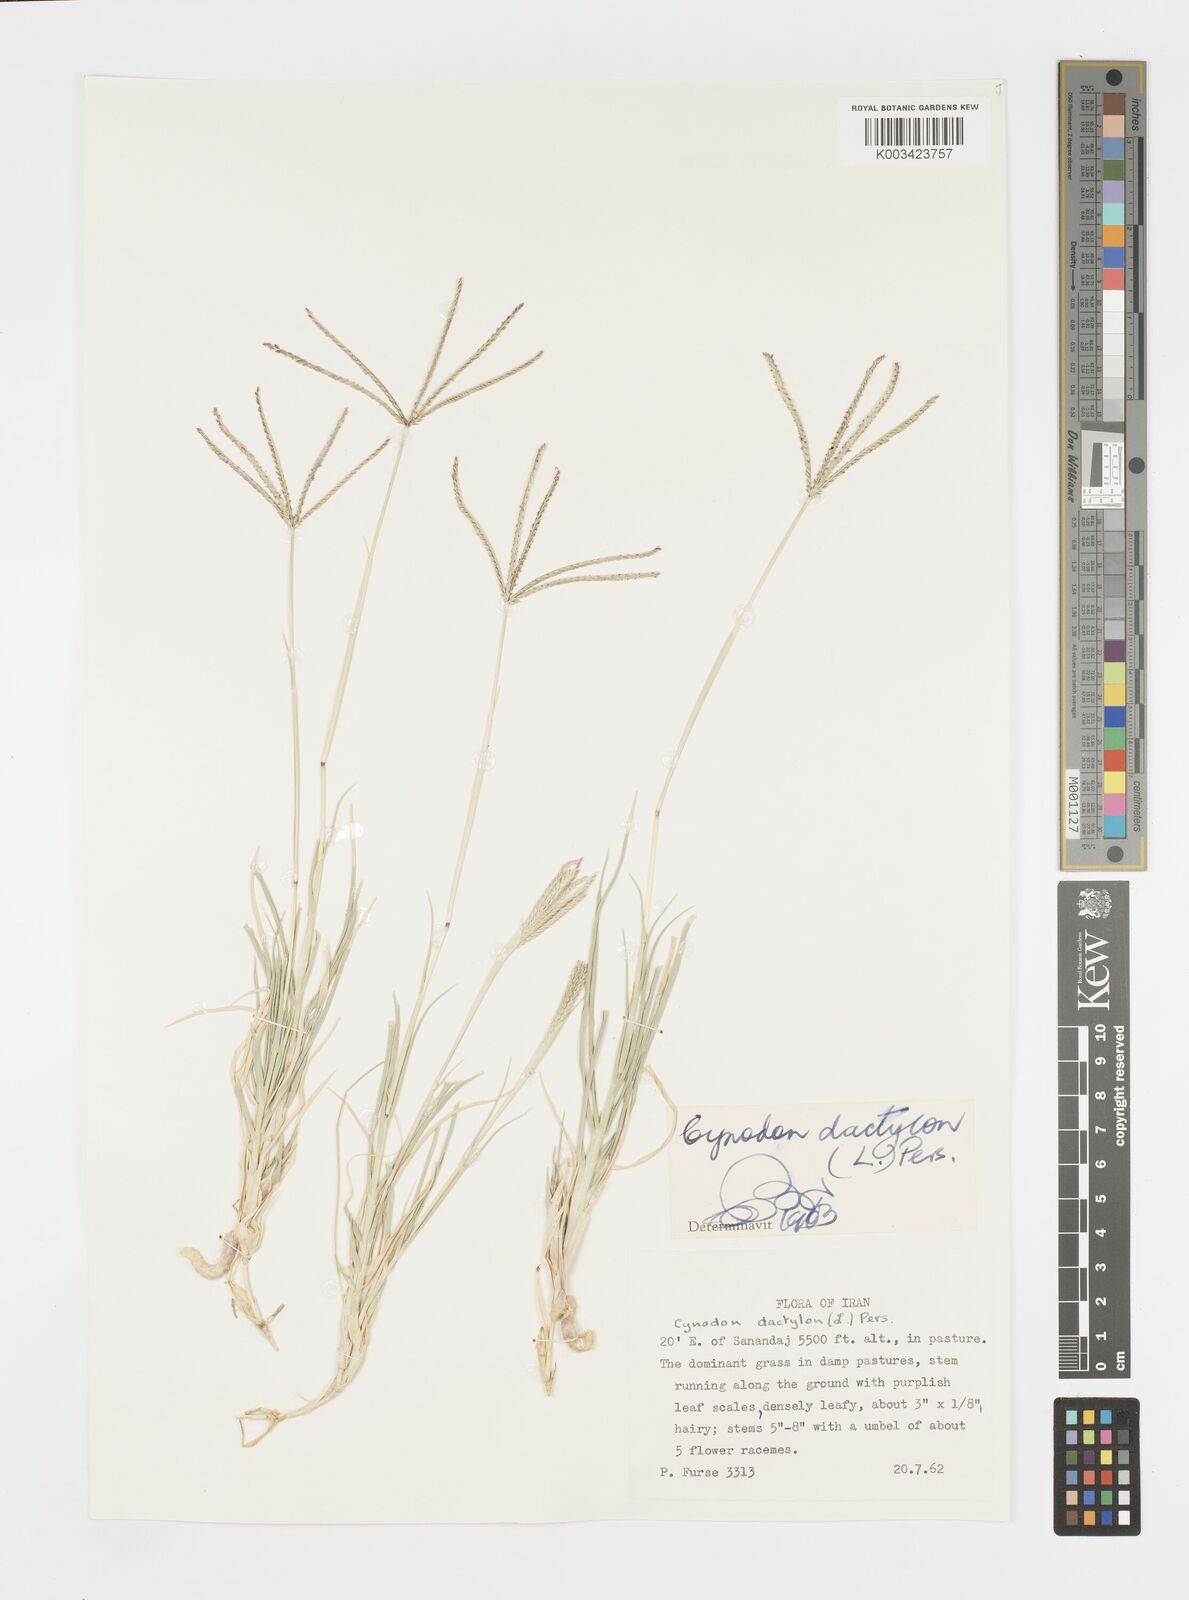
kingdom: Plantae
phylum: Tracheophyta
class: Liliopsida
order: Poales
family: Poaceae
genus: Cynodon
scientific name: Cynodon dactylon
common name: Bermuda grass
